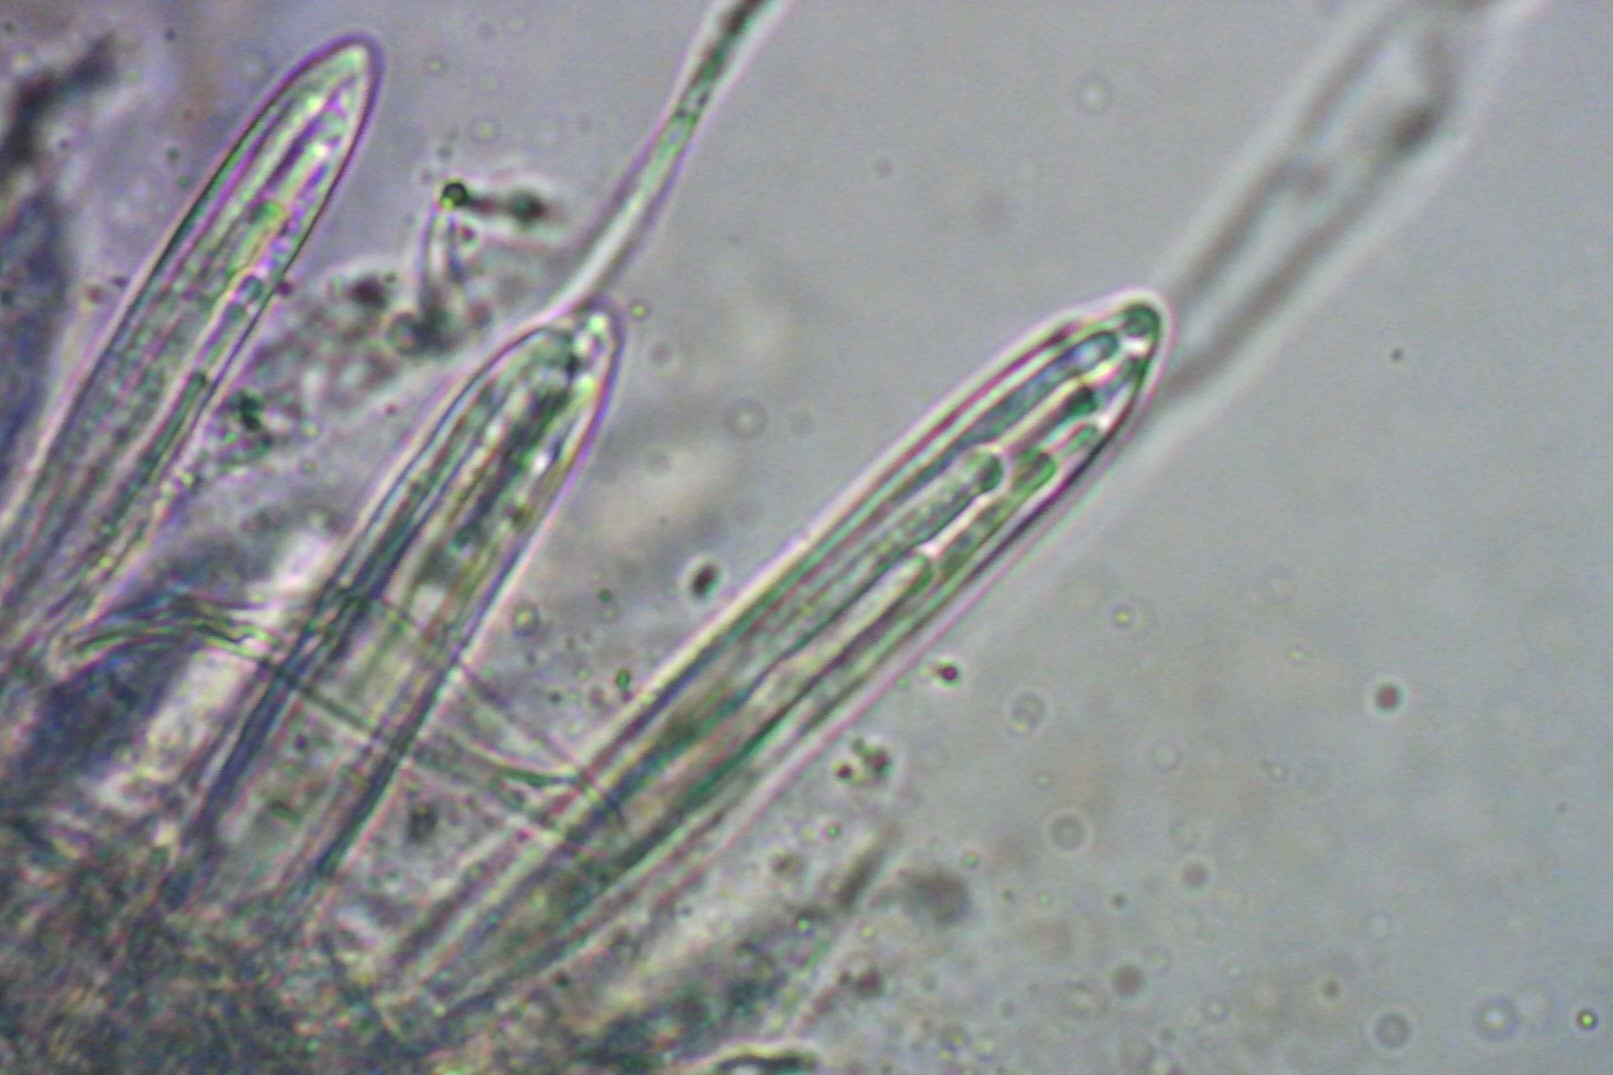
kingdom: Fungi
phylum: Ascomycota
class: Leotiomycetes
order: Rhytismatales
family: Rhytismataceae
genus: Colpoma
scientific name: Colpoma quercinum
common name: ege-sprækkeskive
